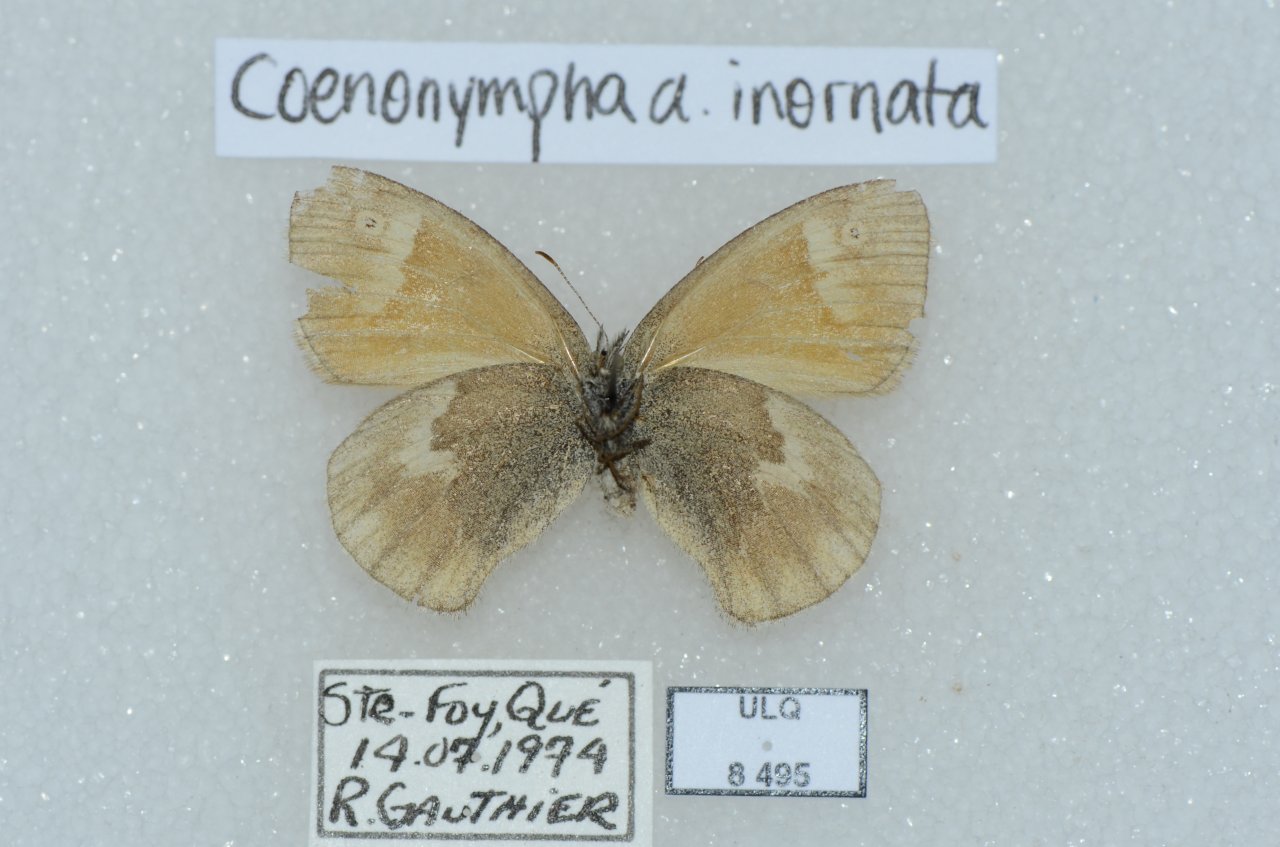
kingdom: Animalia
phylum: Arthropoda
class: Insecta
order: Lepidoptera
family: Nymphalidae
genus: Coenonympha
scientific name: Coenonympha tullia
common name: Large Heath
